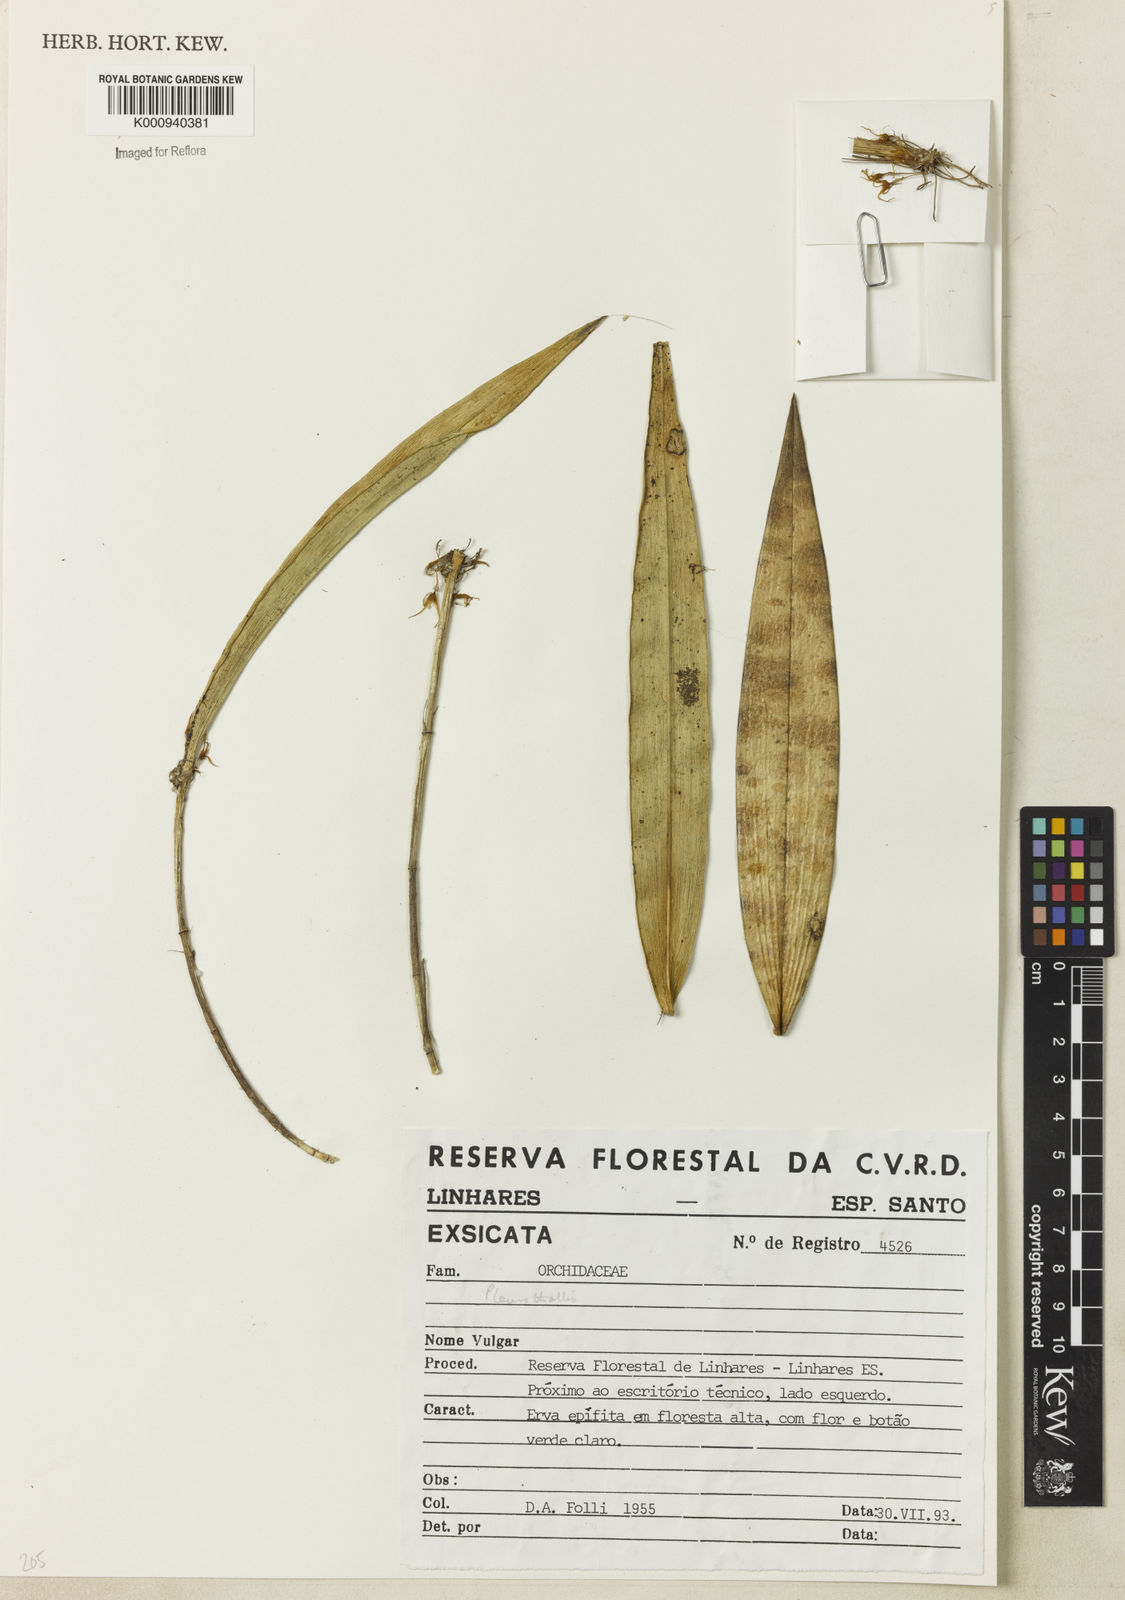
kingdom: Plantae
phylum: Tracheophyta
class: Liliopsida
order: Asparagales
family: Orchidaceae
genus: Myoxanthus
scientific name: Myoxanthus
